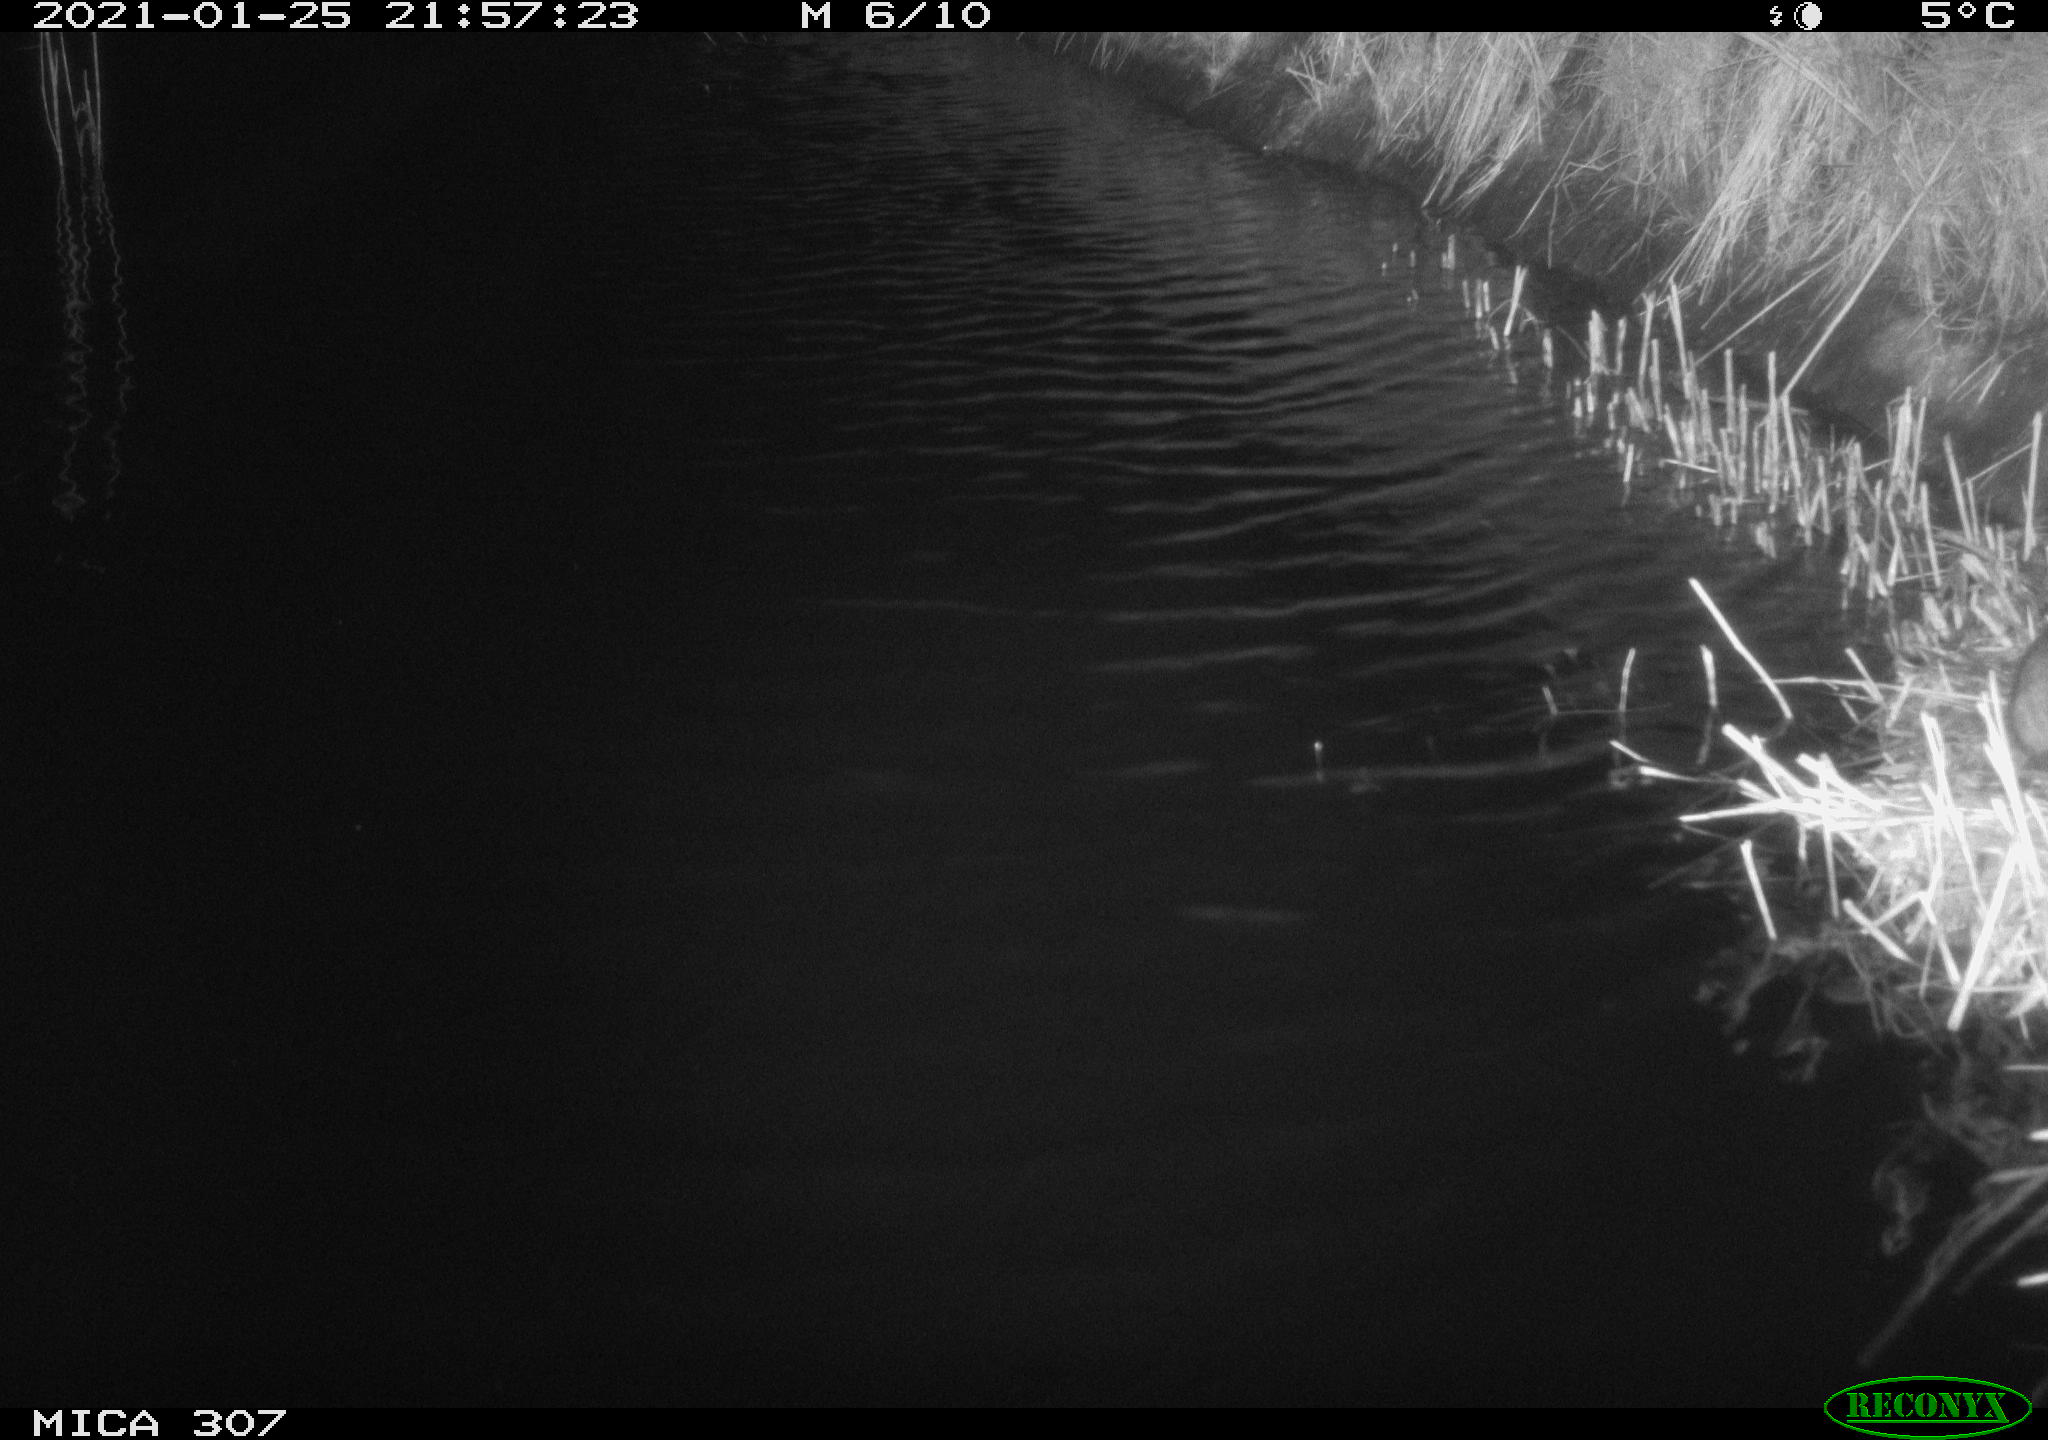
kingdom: Animalia
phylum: Chordata
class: Mammalia
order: Rodentia
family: Muridae
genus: Rattus
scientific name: Rattus norvegicus
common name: Brown rat
